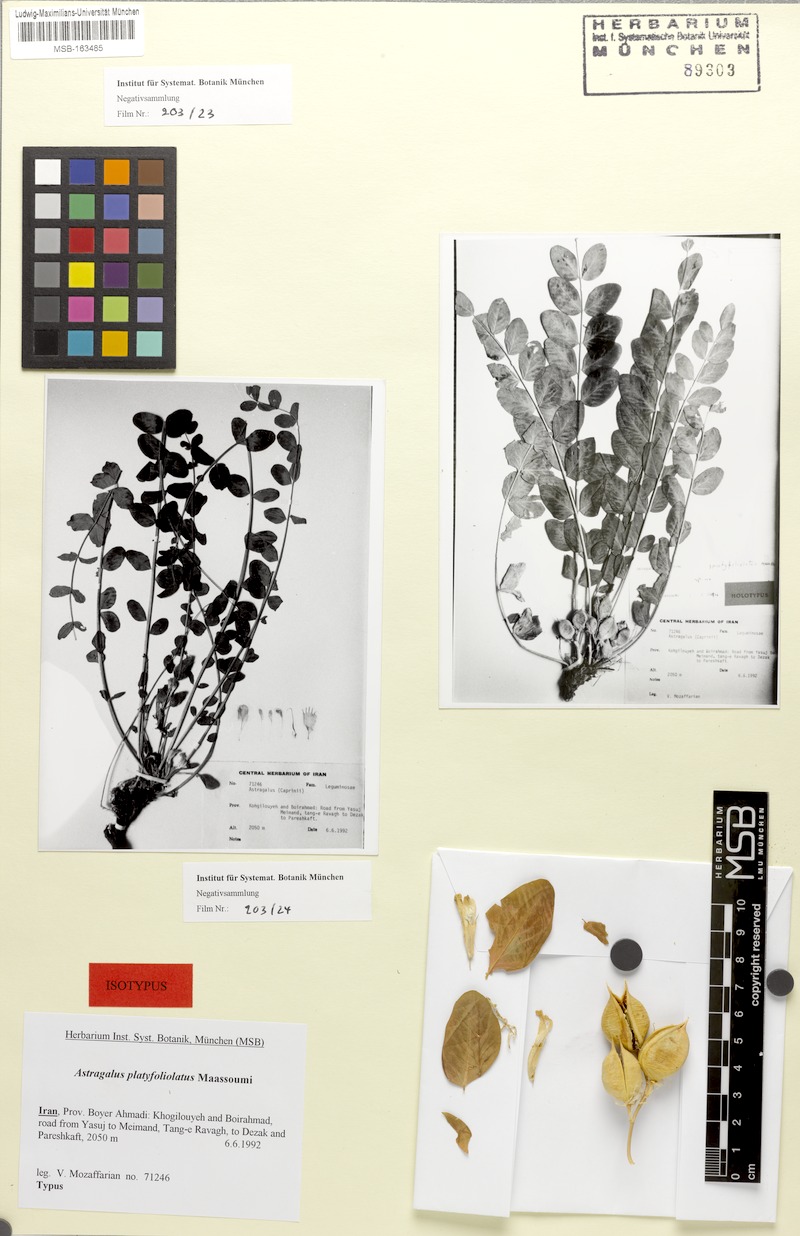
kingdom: Plantae
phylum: Tracheophyta
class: Magnoliopsida
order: Fabales
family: Fabaceae
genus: Astragalus
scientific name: Astragalus platyfoliolatus
